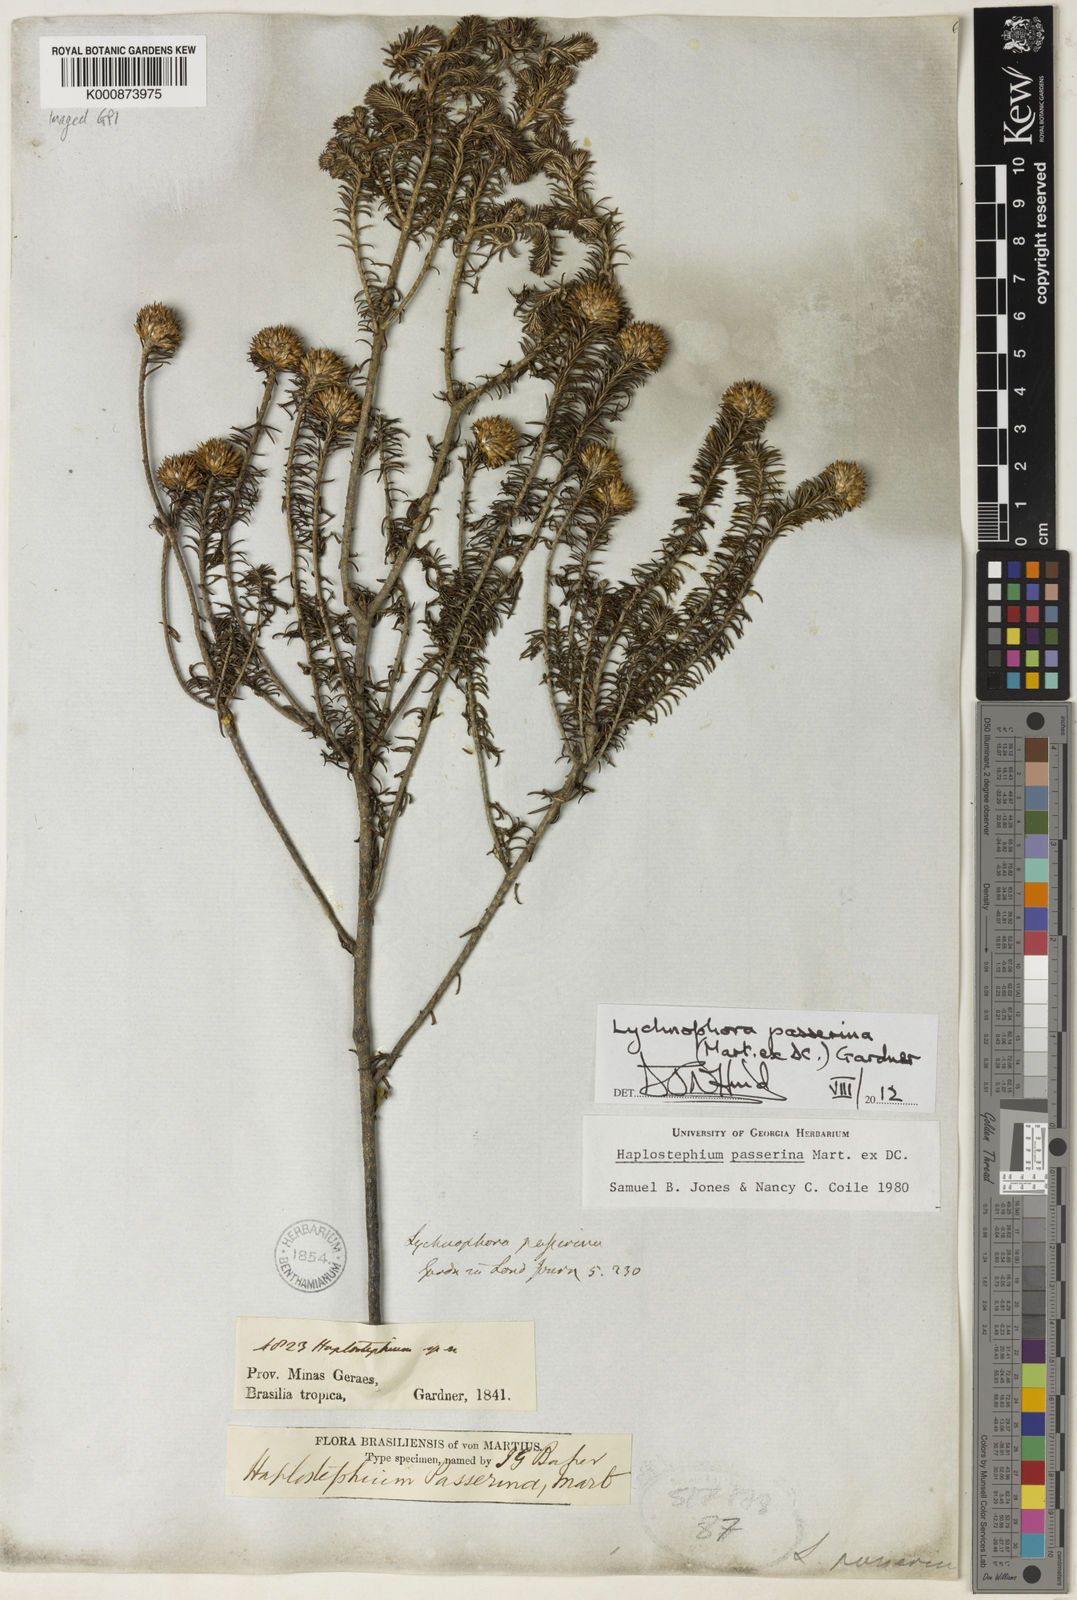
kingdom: Plantae
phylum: Tracheophyta
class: Magnoliopsida
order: Asterales
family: Asteraceae
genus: Lychnophora
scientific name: Lychnophora passerina
